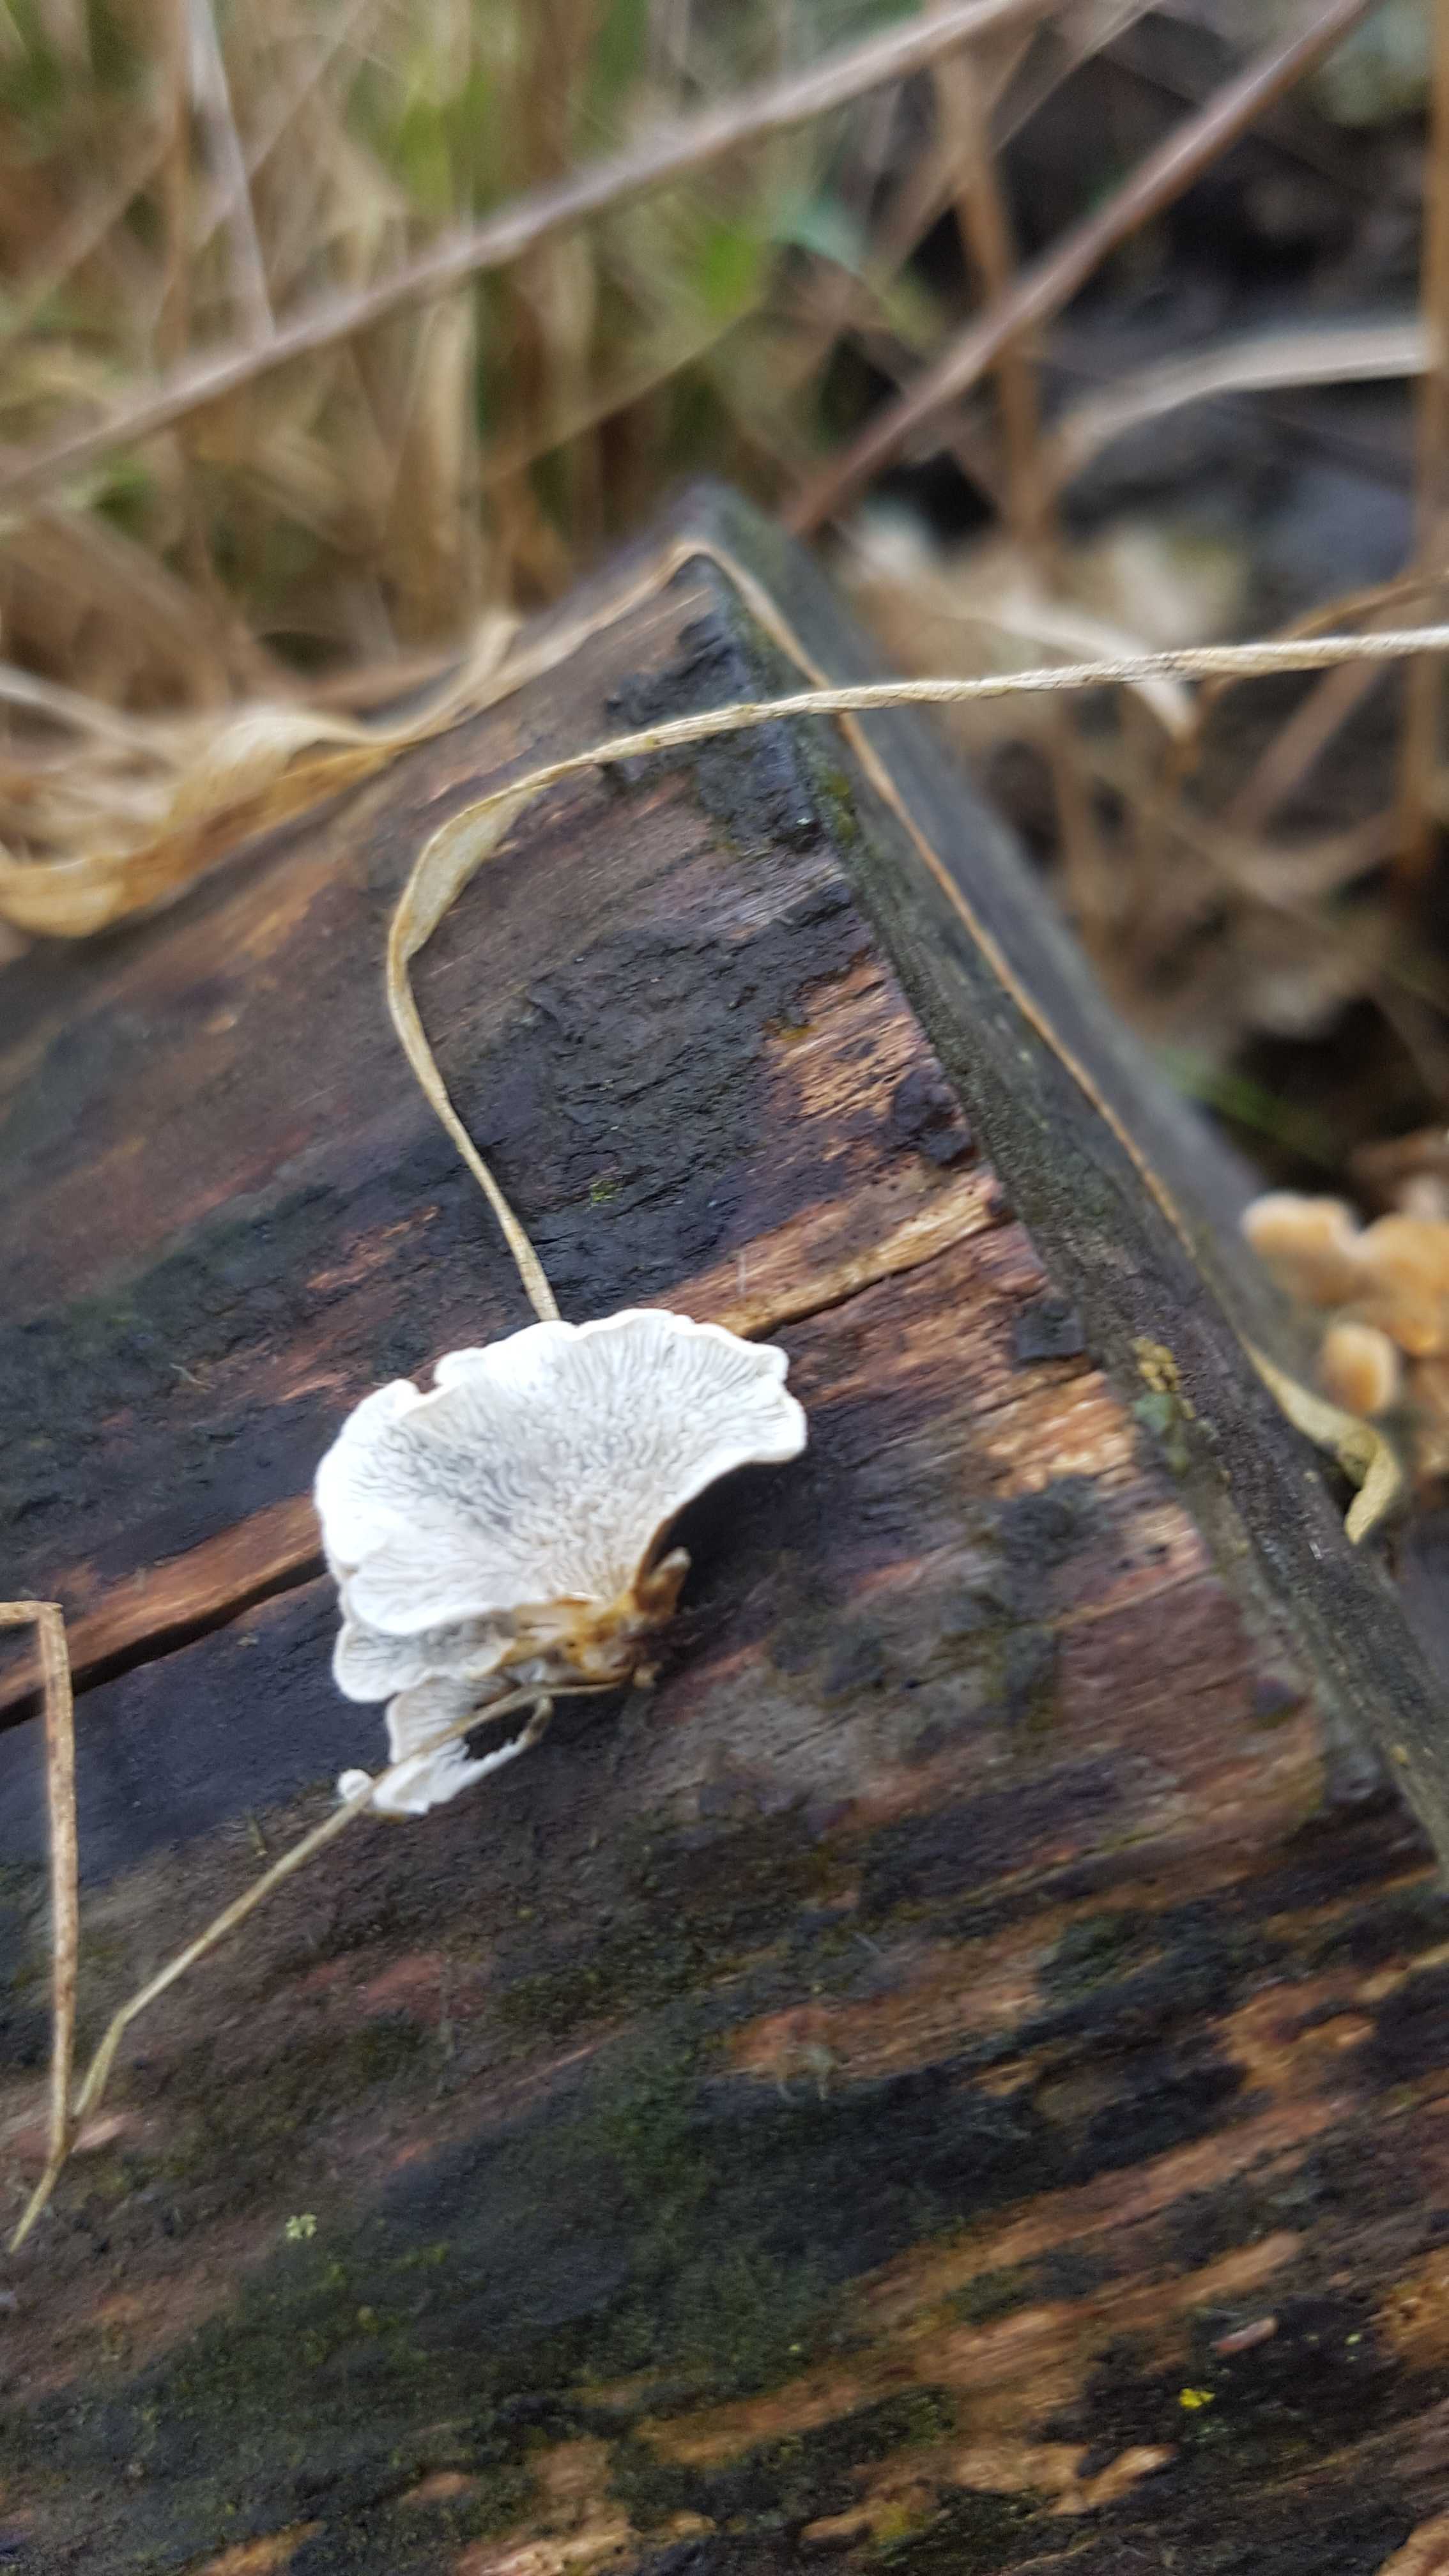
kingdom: Fungi
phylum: Basidiomycota
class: Agaricomycetes
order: Amylocorticiales
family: Amylocorticiaceae
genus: Plicaturopsis
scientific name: Plicaturopsis crispa
